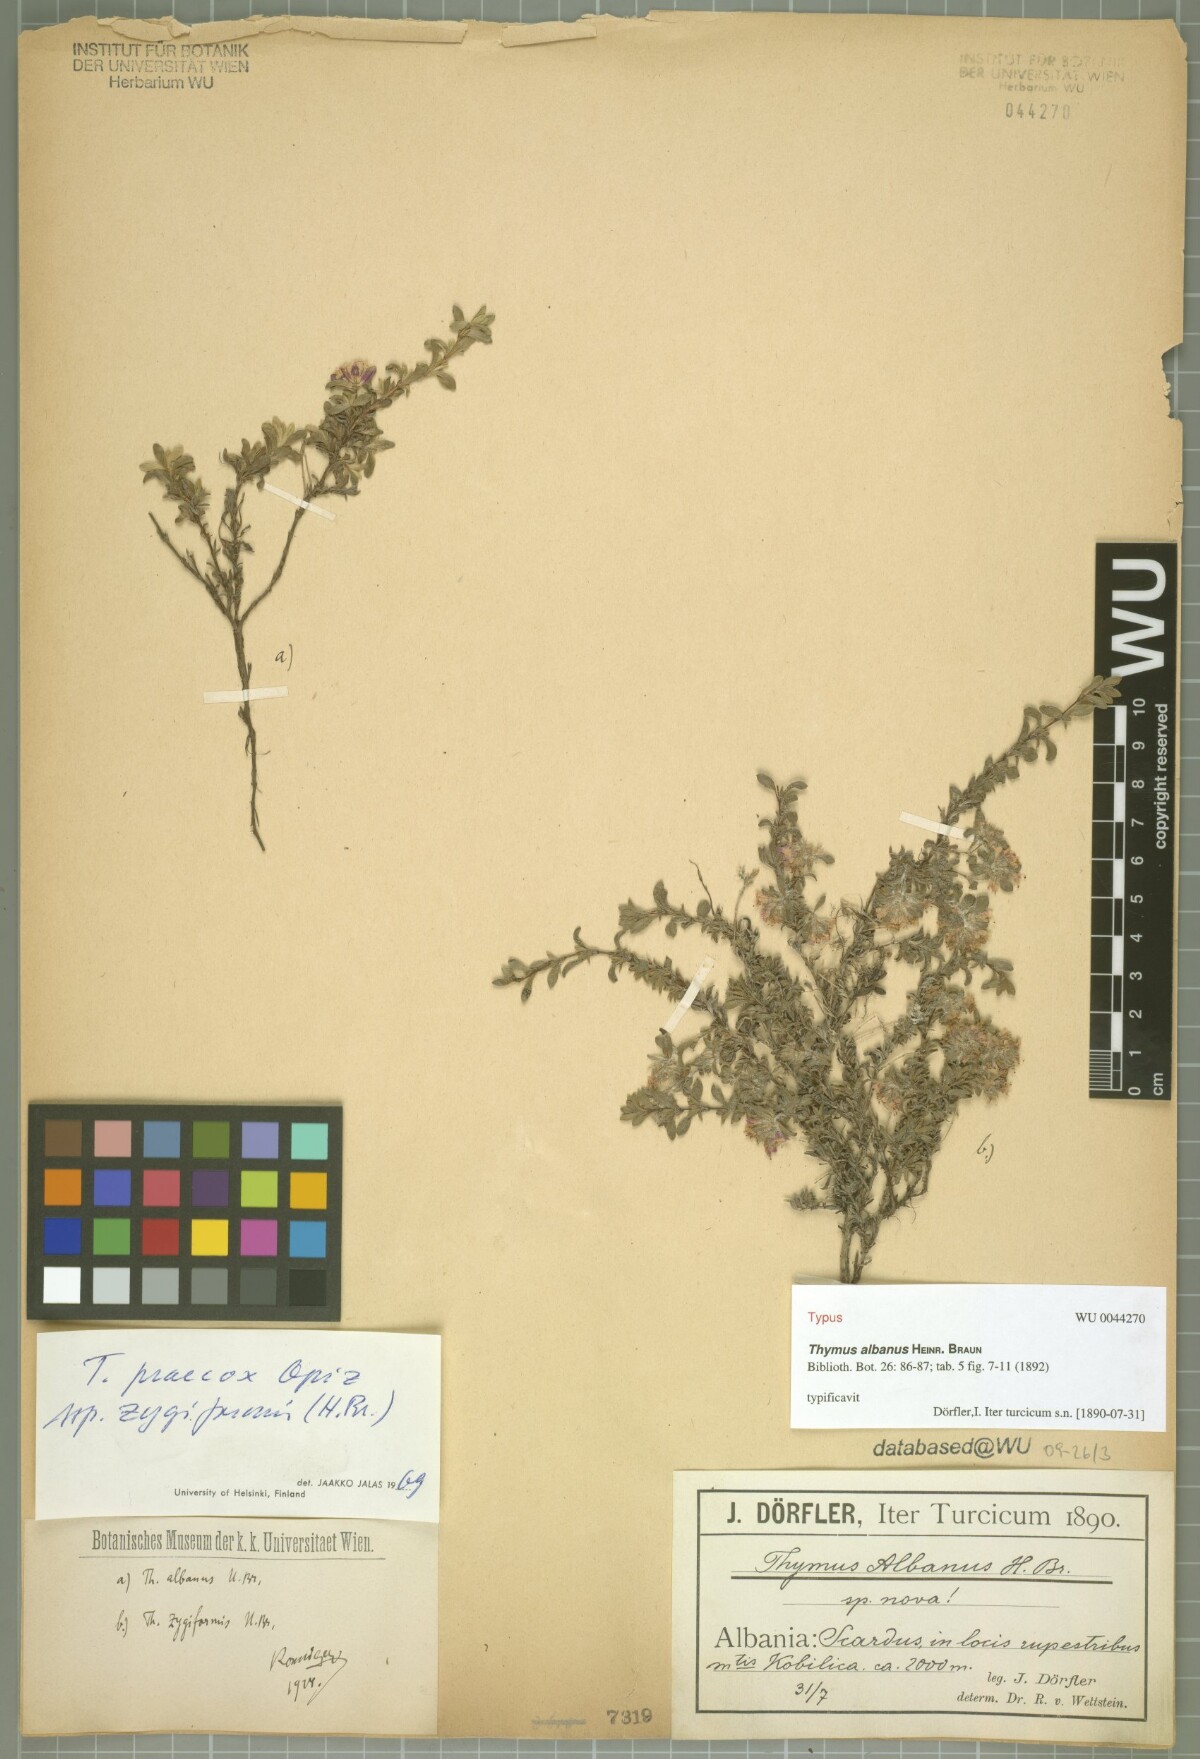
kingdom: Plantae
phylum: Tracheophyta
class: Magnoliopsida
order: Lamiales
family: Lamiaceae
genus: Thymus
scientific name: Thymus albanus
